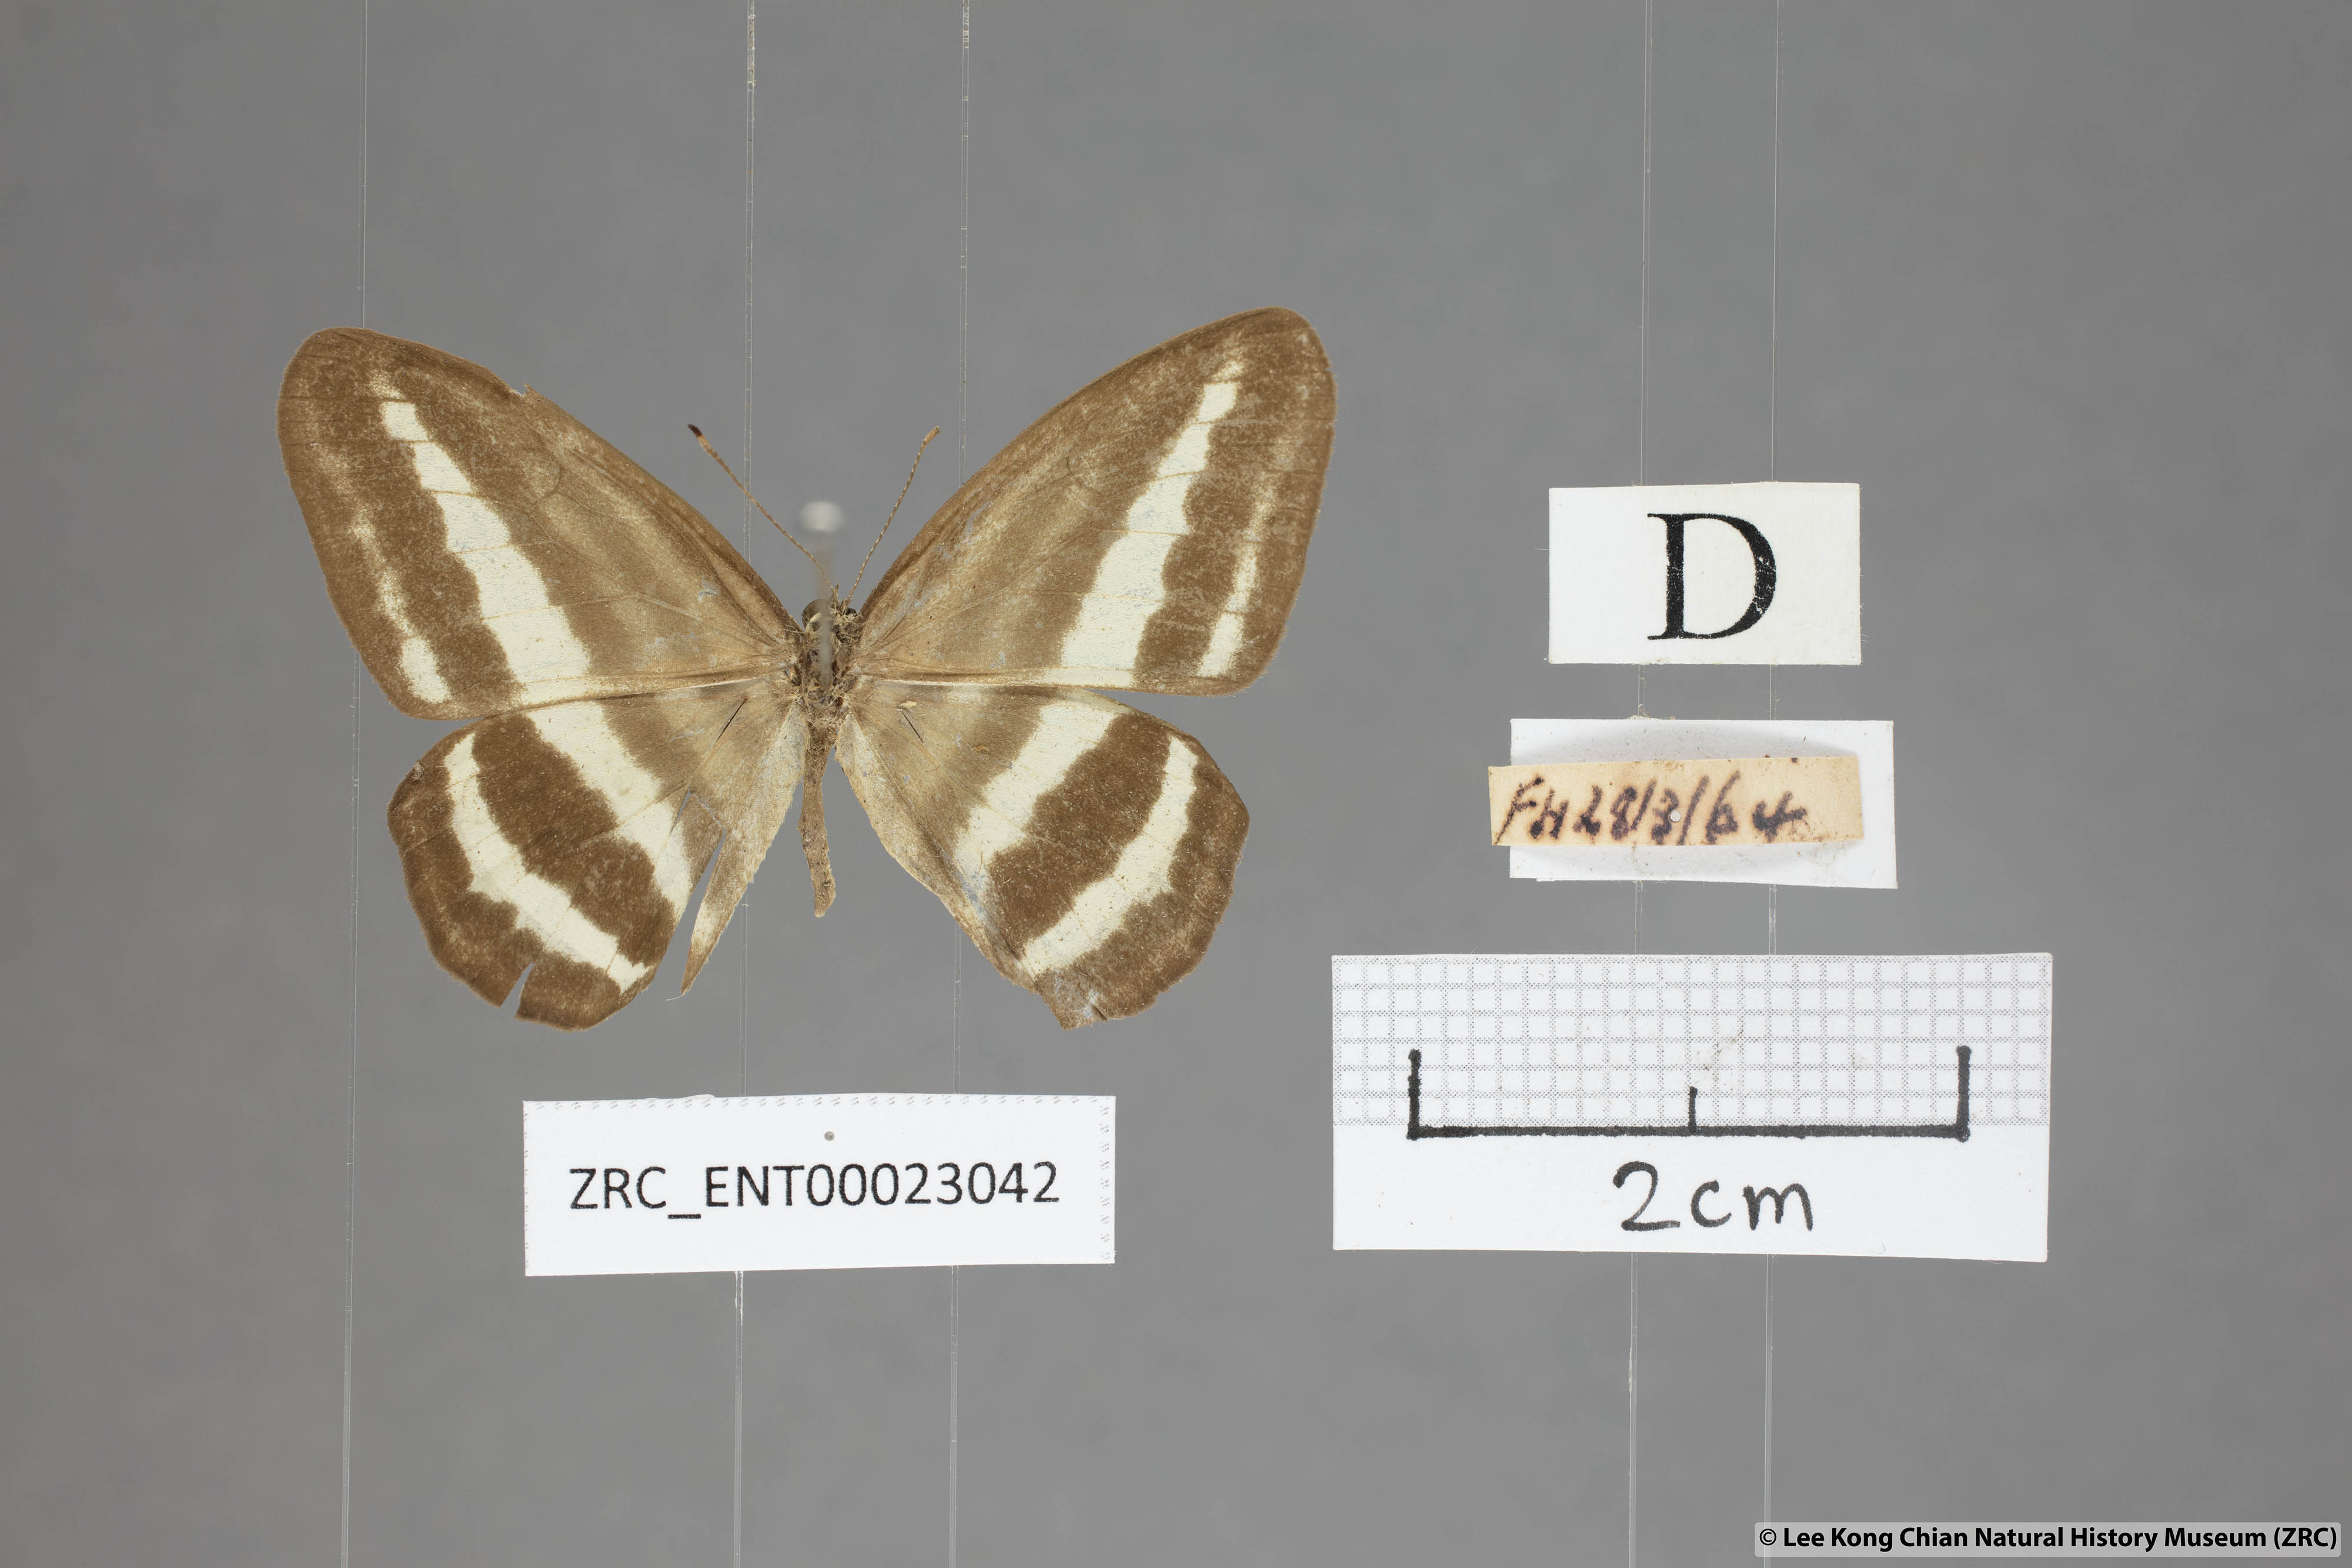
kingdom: Animalia
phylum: Arthropoda
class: Insecta
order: Lepidoptera
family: Nymphalidae
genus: Ragadia
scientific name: Ragadia crisilda
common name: White-striped ringlet
